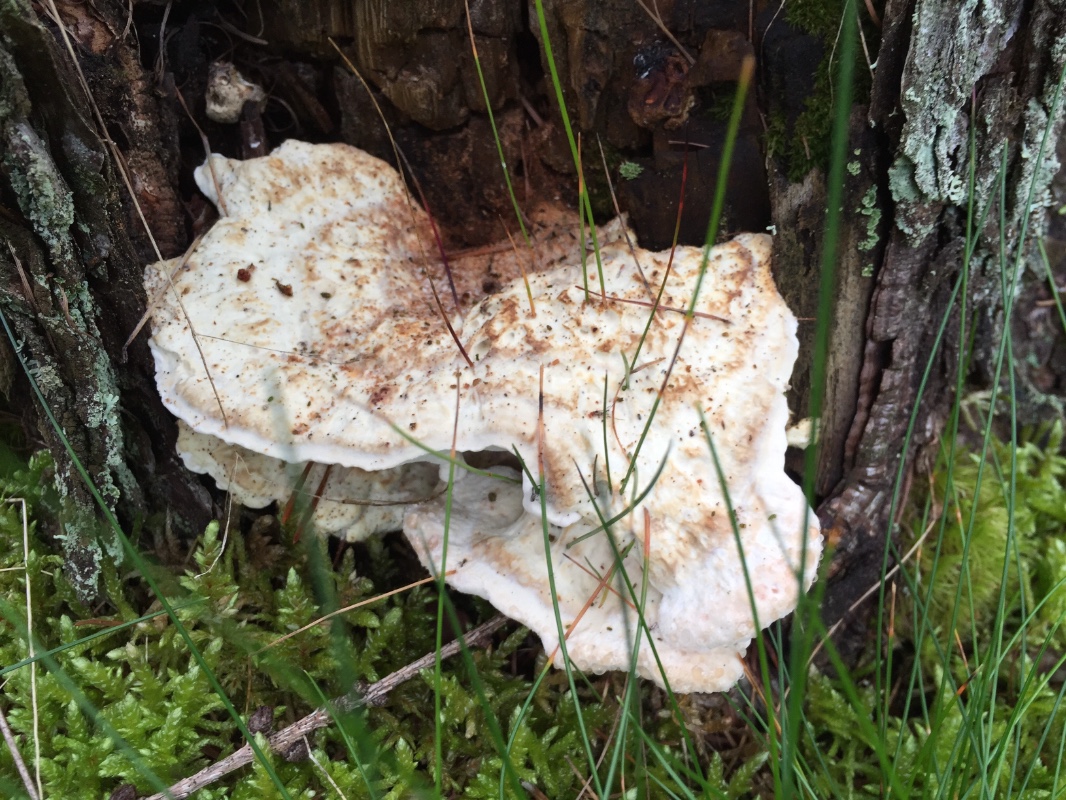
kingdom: Fungi
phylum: Basidiomycota
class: Agaricomycetes
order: Polyporales
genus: Calcipostia
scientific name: Calcipostia guttulata
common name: dråbe-kødporesvamp
